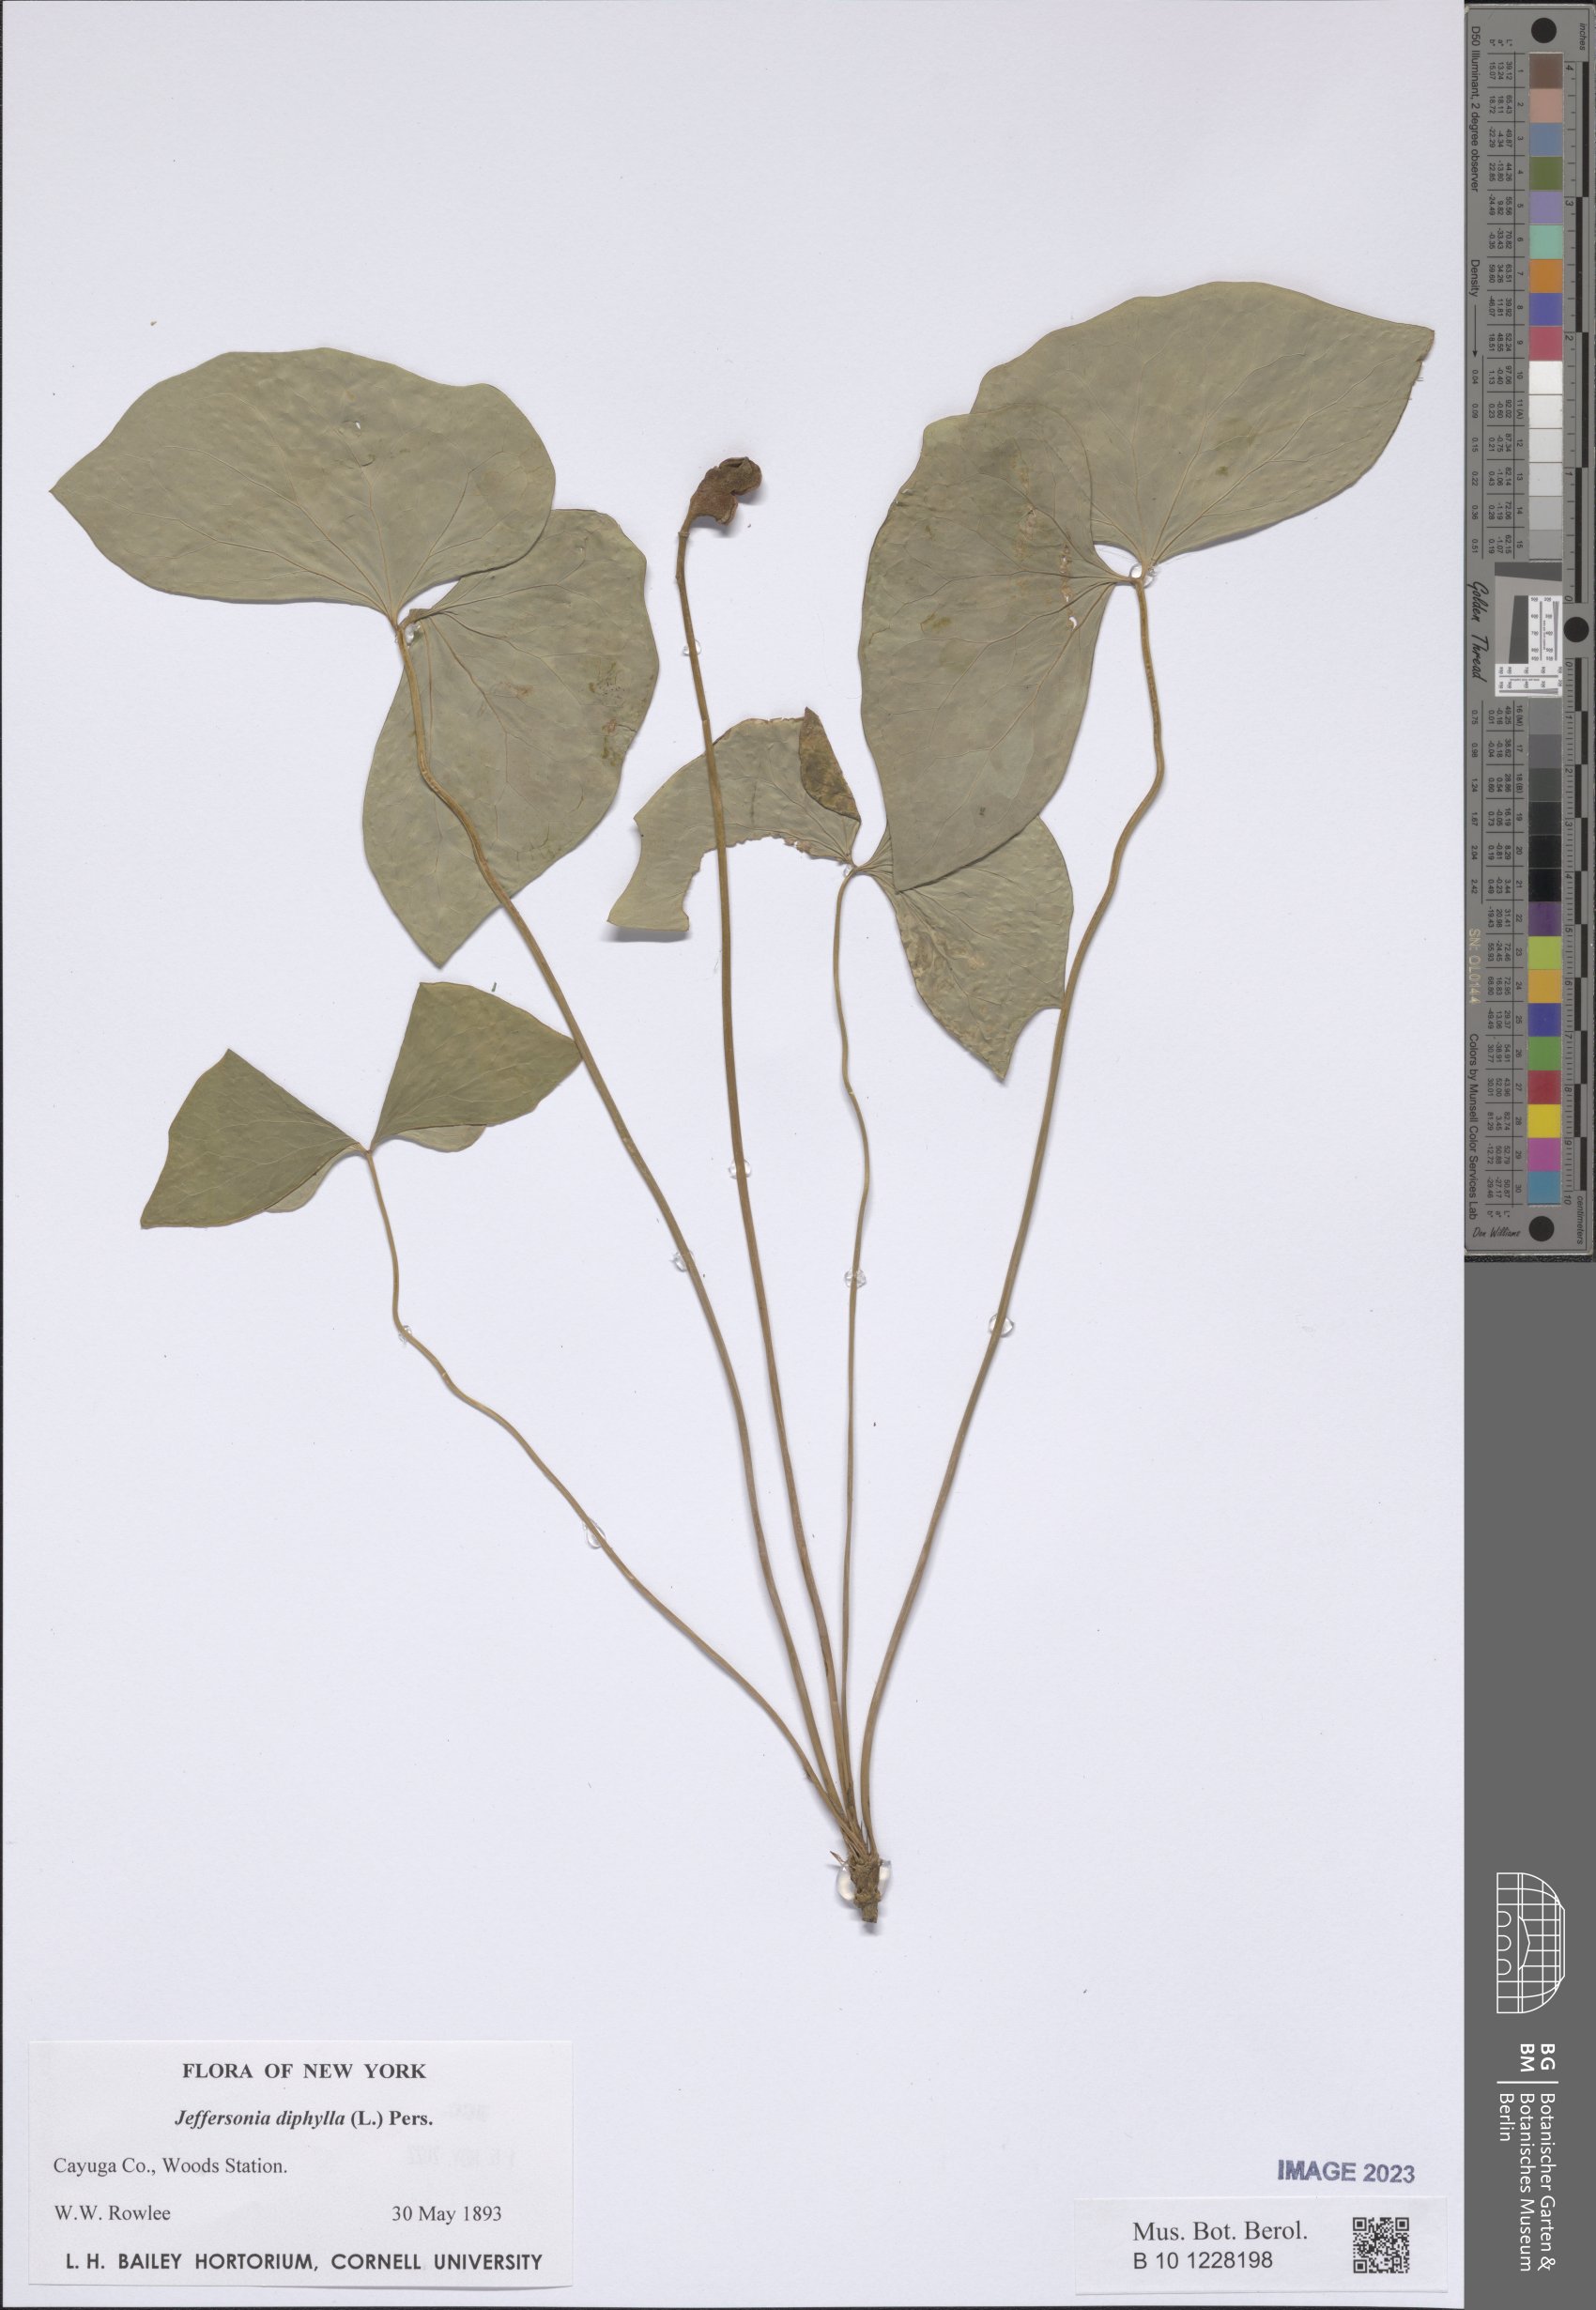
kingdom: Plantae
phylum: Tracheophyta
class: Magnoliopsida
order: Ranunculales
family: Berberidaceae
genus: Jeffersonia
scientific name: Jeffersonia diphylla
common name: Rheumatism-root
